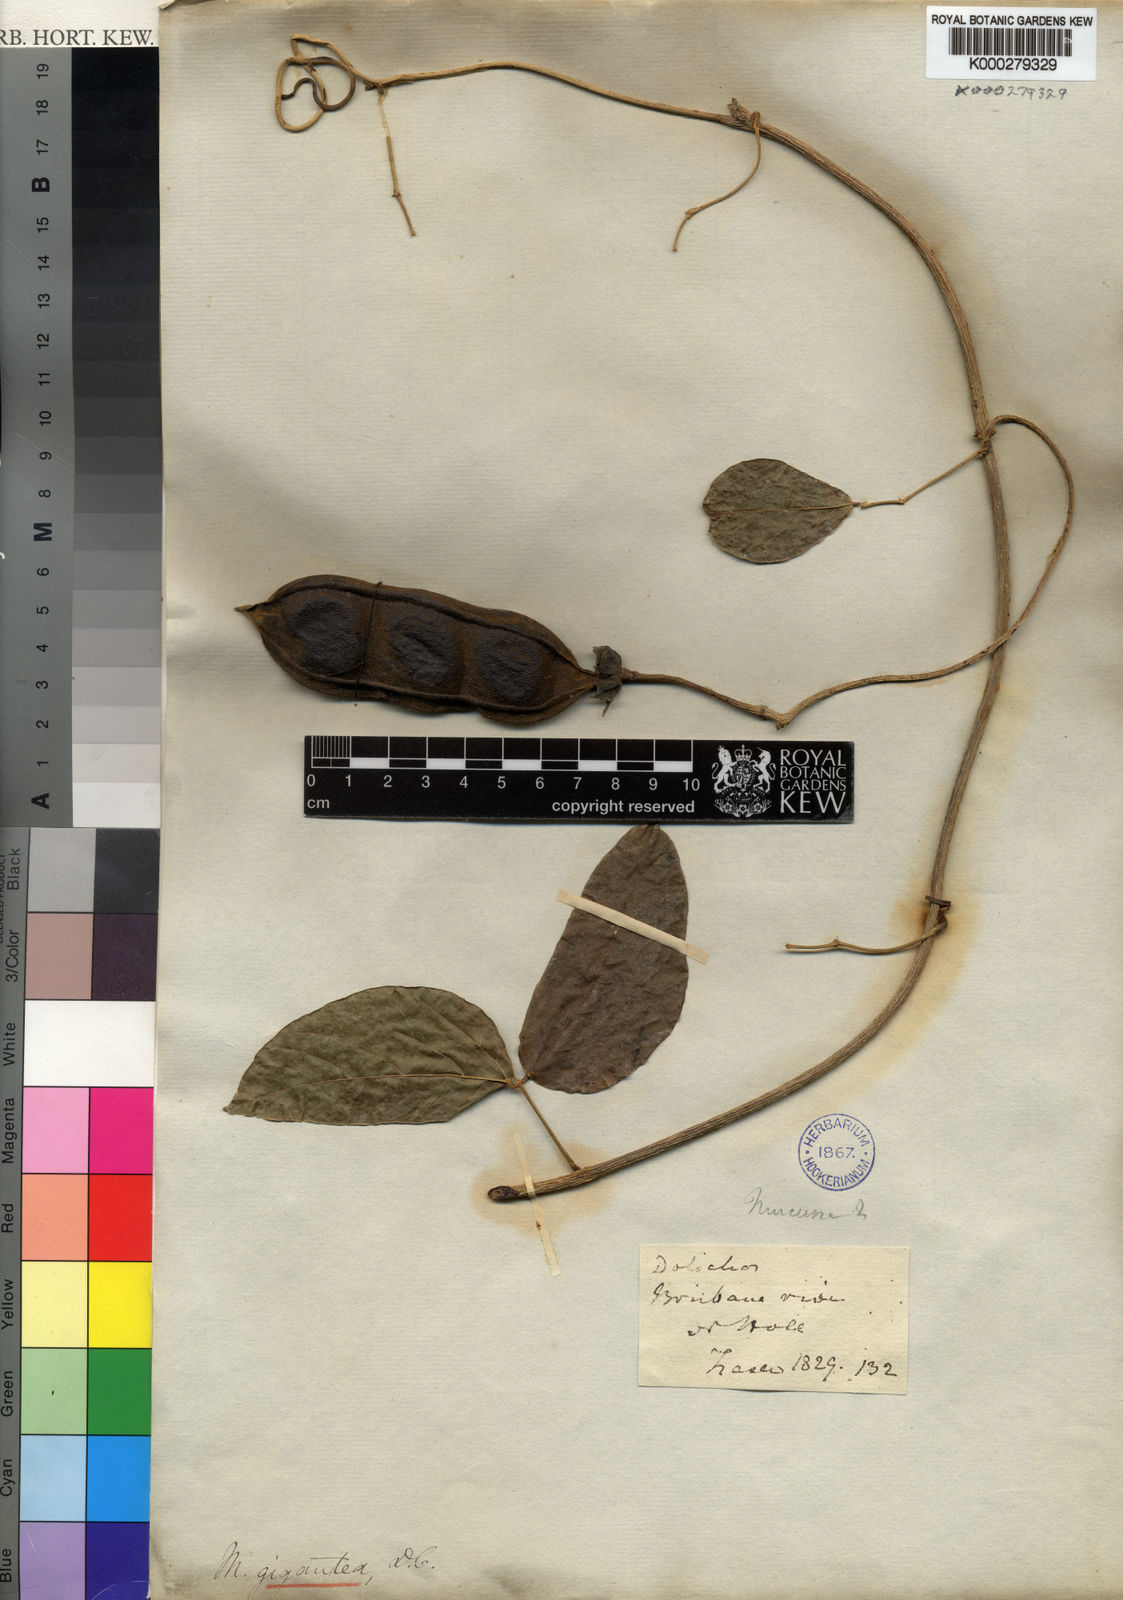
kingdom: Plantae
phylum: Tracheophyta
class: Magnoliopsida
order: Fabales
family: Fabaceae
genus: Mucuna
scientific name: Mucuna gigantea
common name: Black-bean
